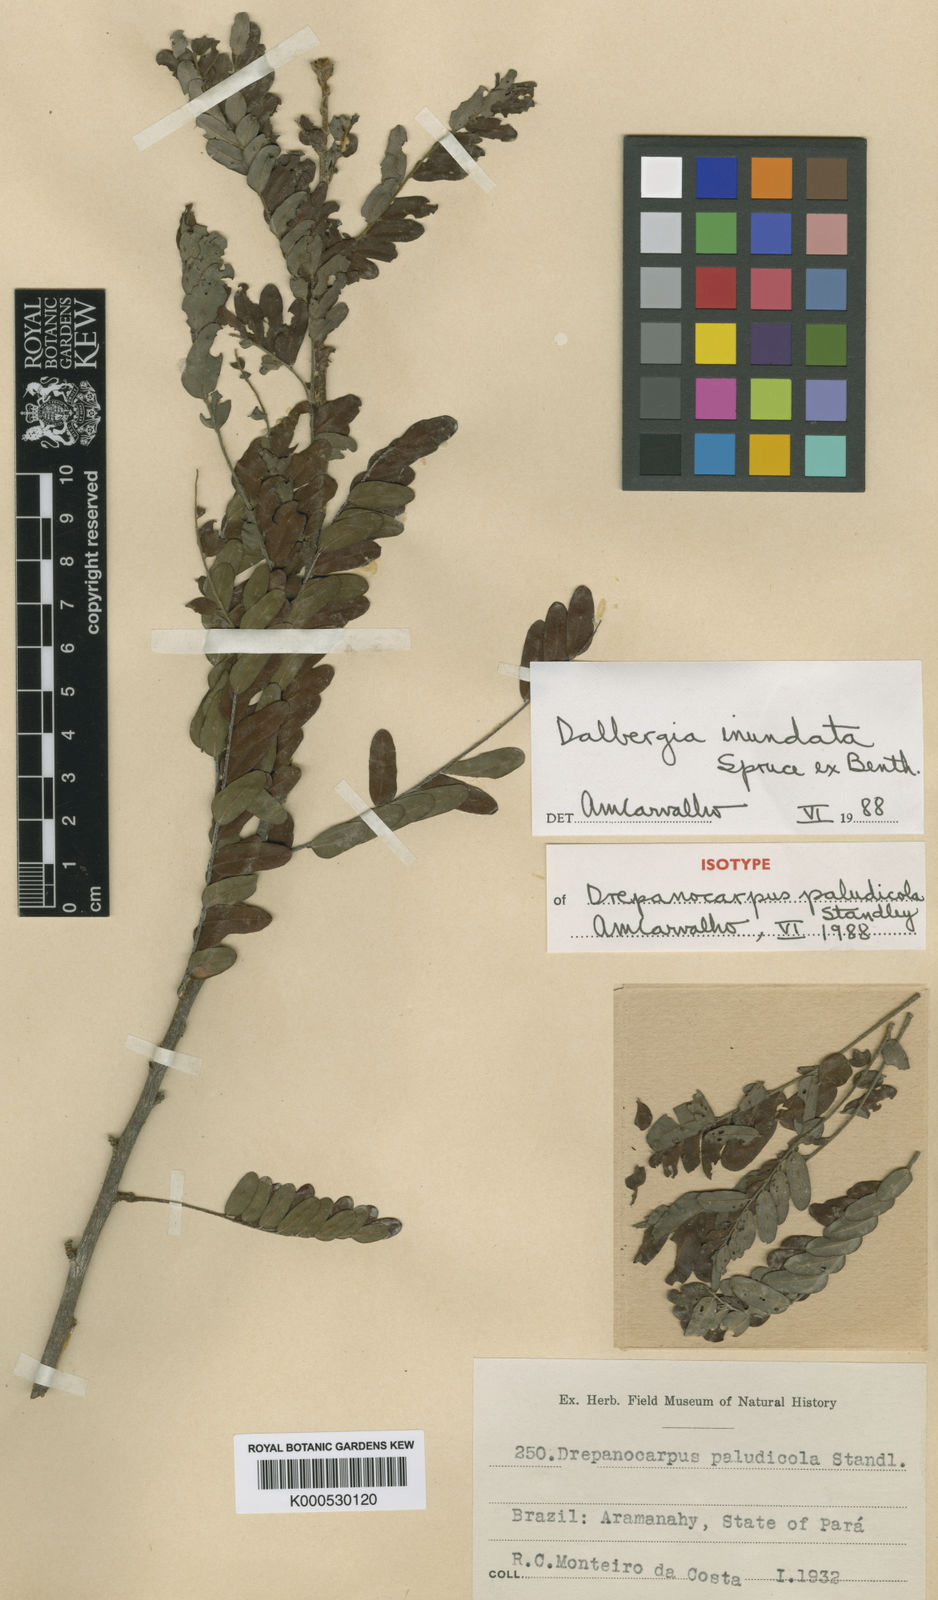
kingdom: Plantae
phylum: Tracheophyta
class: Magnoliopsida
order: Fabales
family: Fabaceae
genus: Dalbergia
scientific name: Dalbergia inundata
